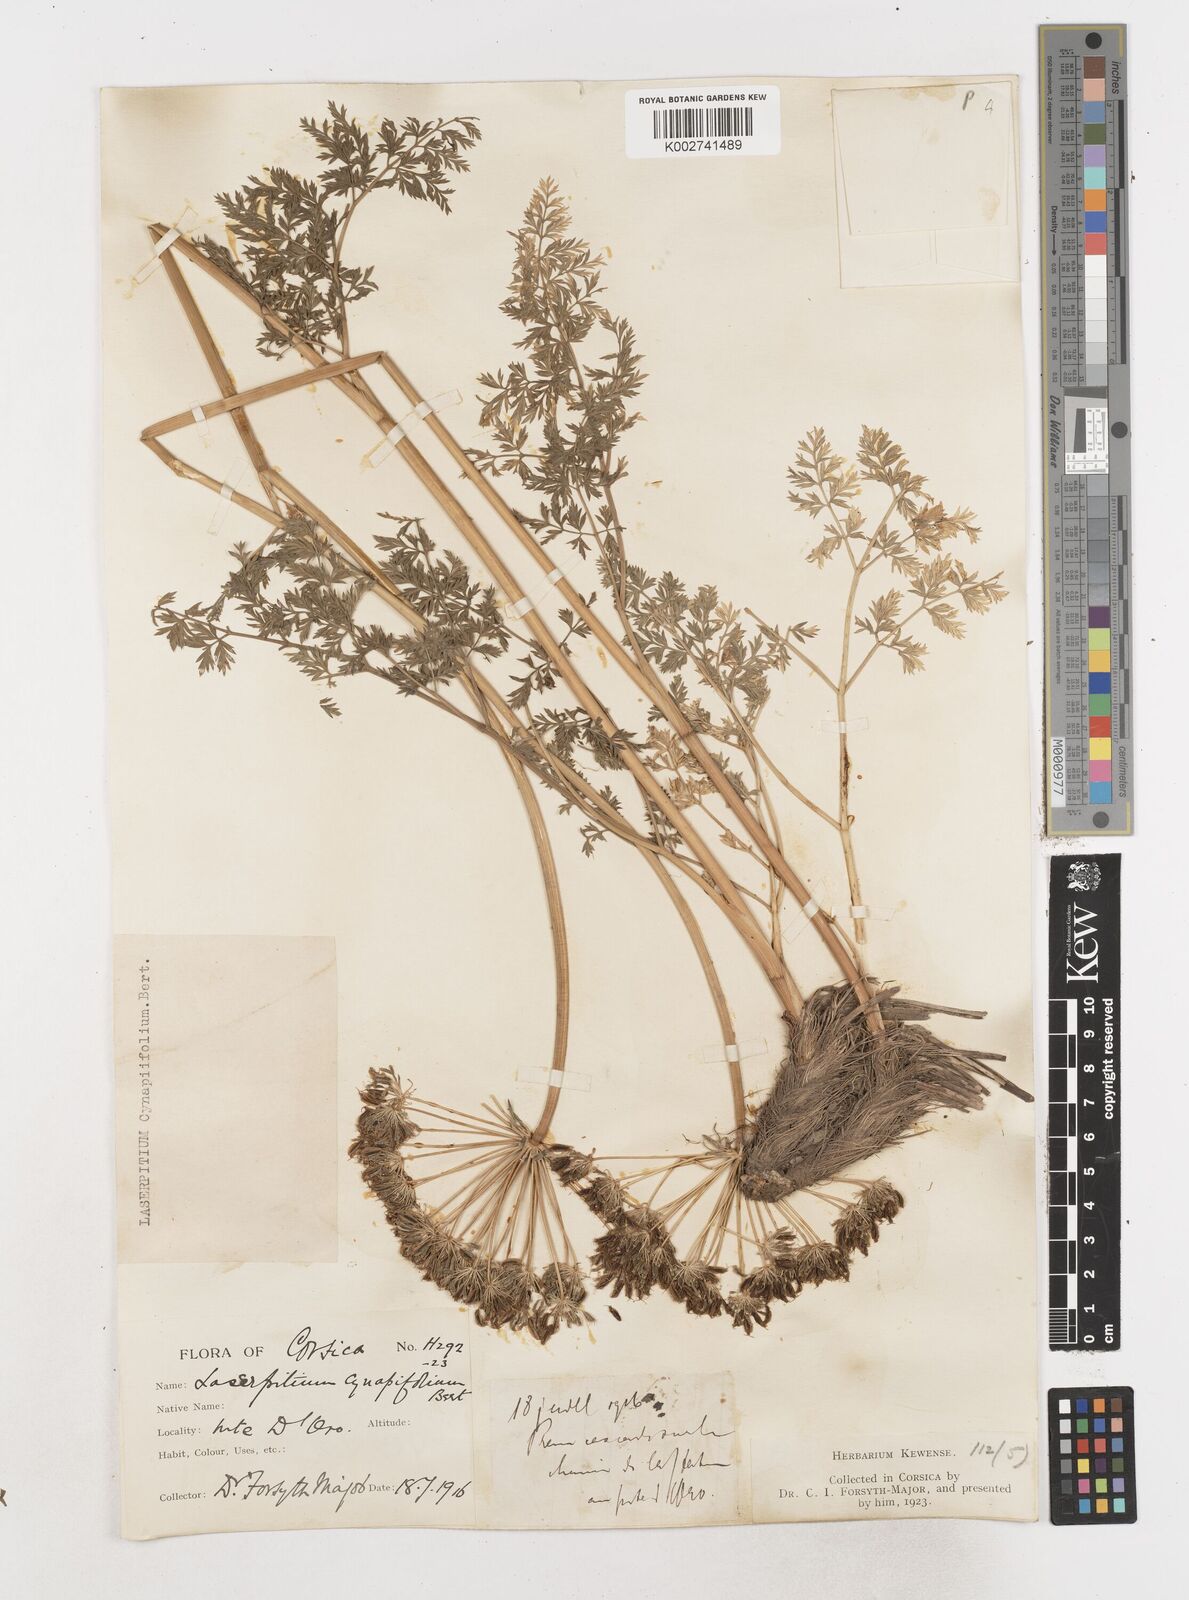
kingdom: Plantae
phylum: Tracheophyta
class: Magnoliopsida
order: Apiales
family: Apiaceae
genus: Laserpitium
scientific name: Laserpitium halleri
